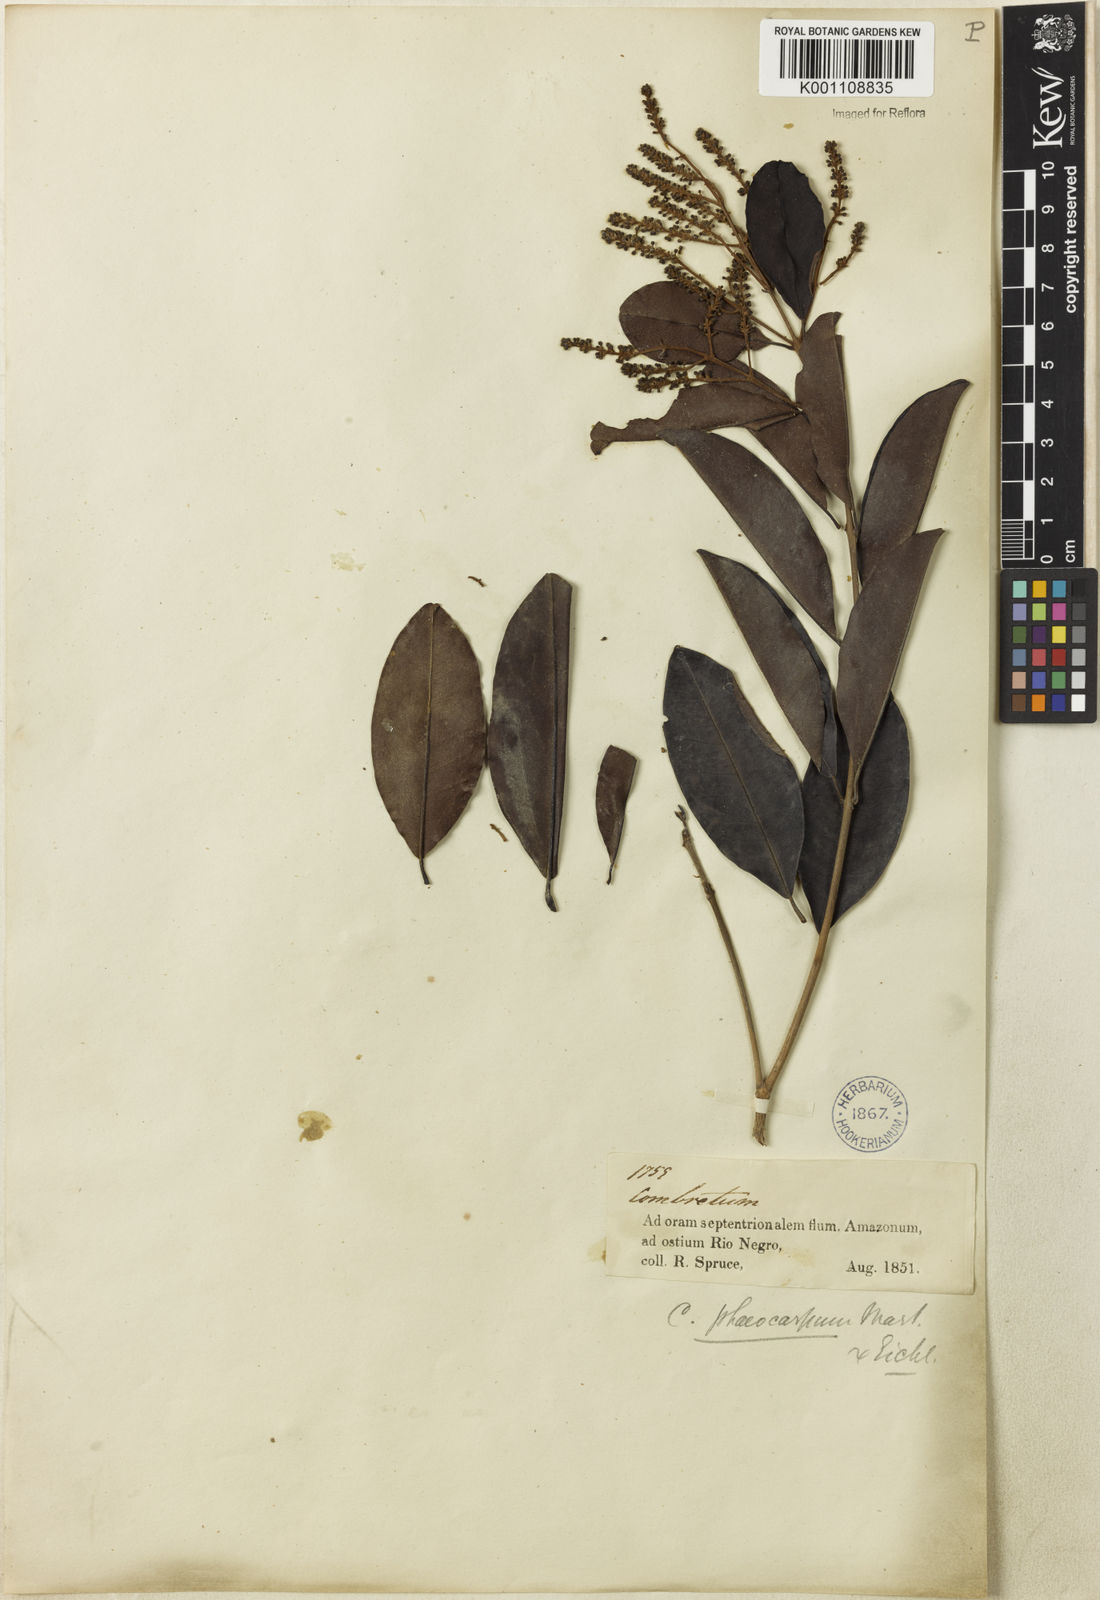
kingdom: Plantae
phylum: Tracheophyta
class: Magnoliopsida
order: Myrtales
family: Combretaceae
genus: Combretum
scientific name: Combretum pyramidatum
